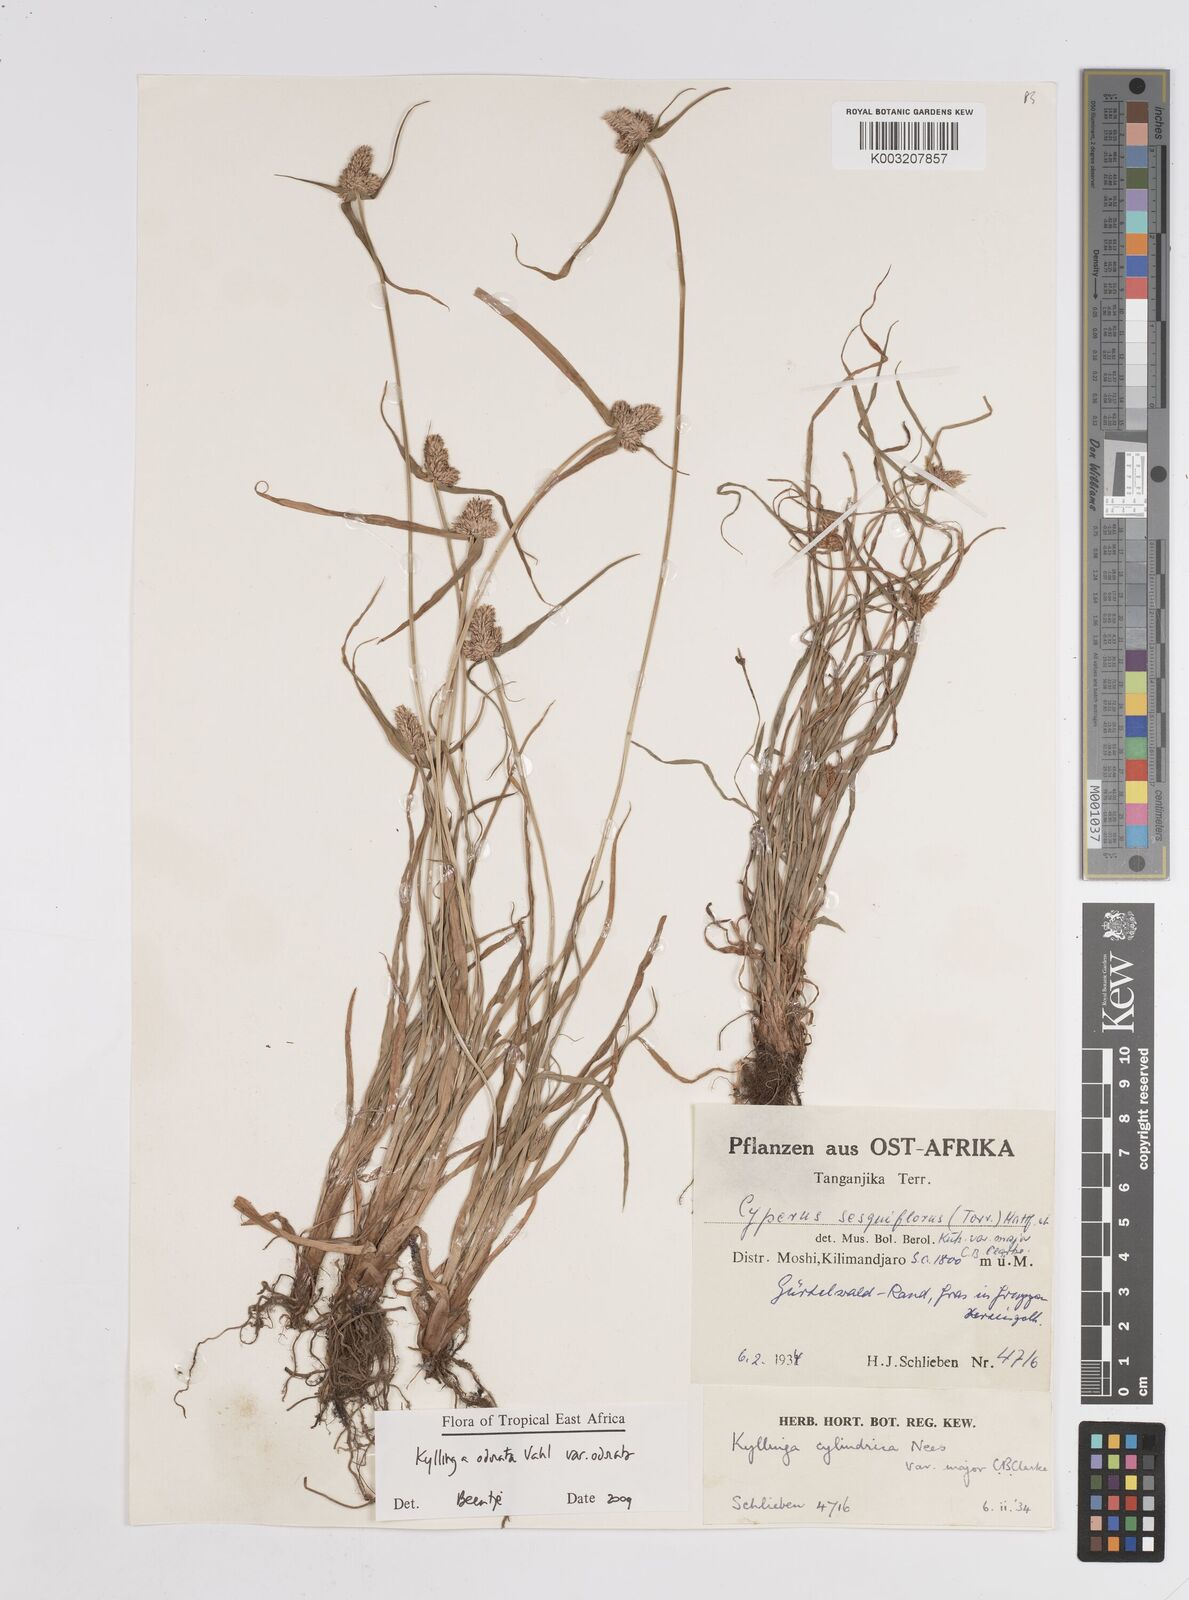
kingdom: Plantae
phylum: Tracheophyta
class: Liliopsida
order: Poales
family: Cyperaceae
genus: Cyperus
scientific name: Cyperus sesquiflorus
